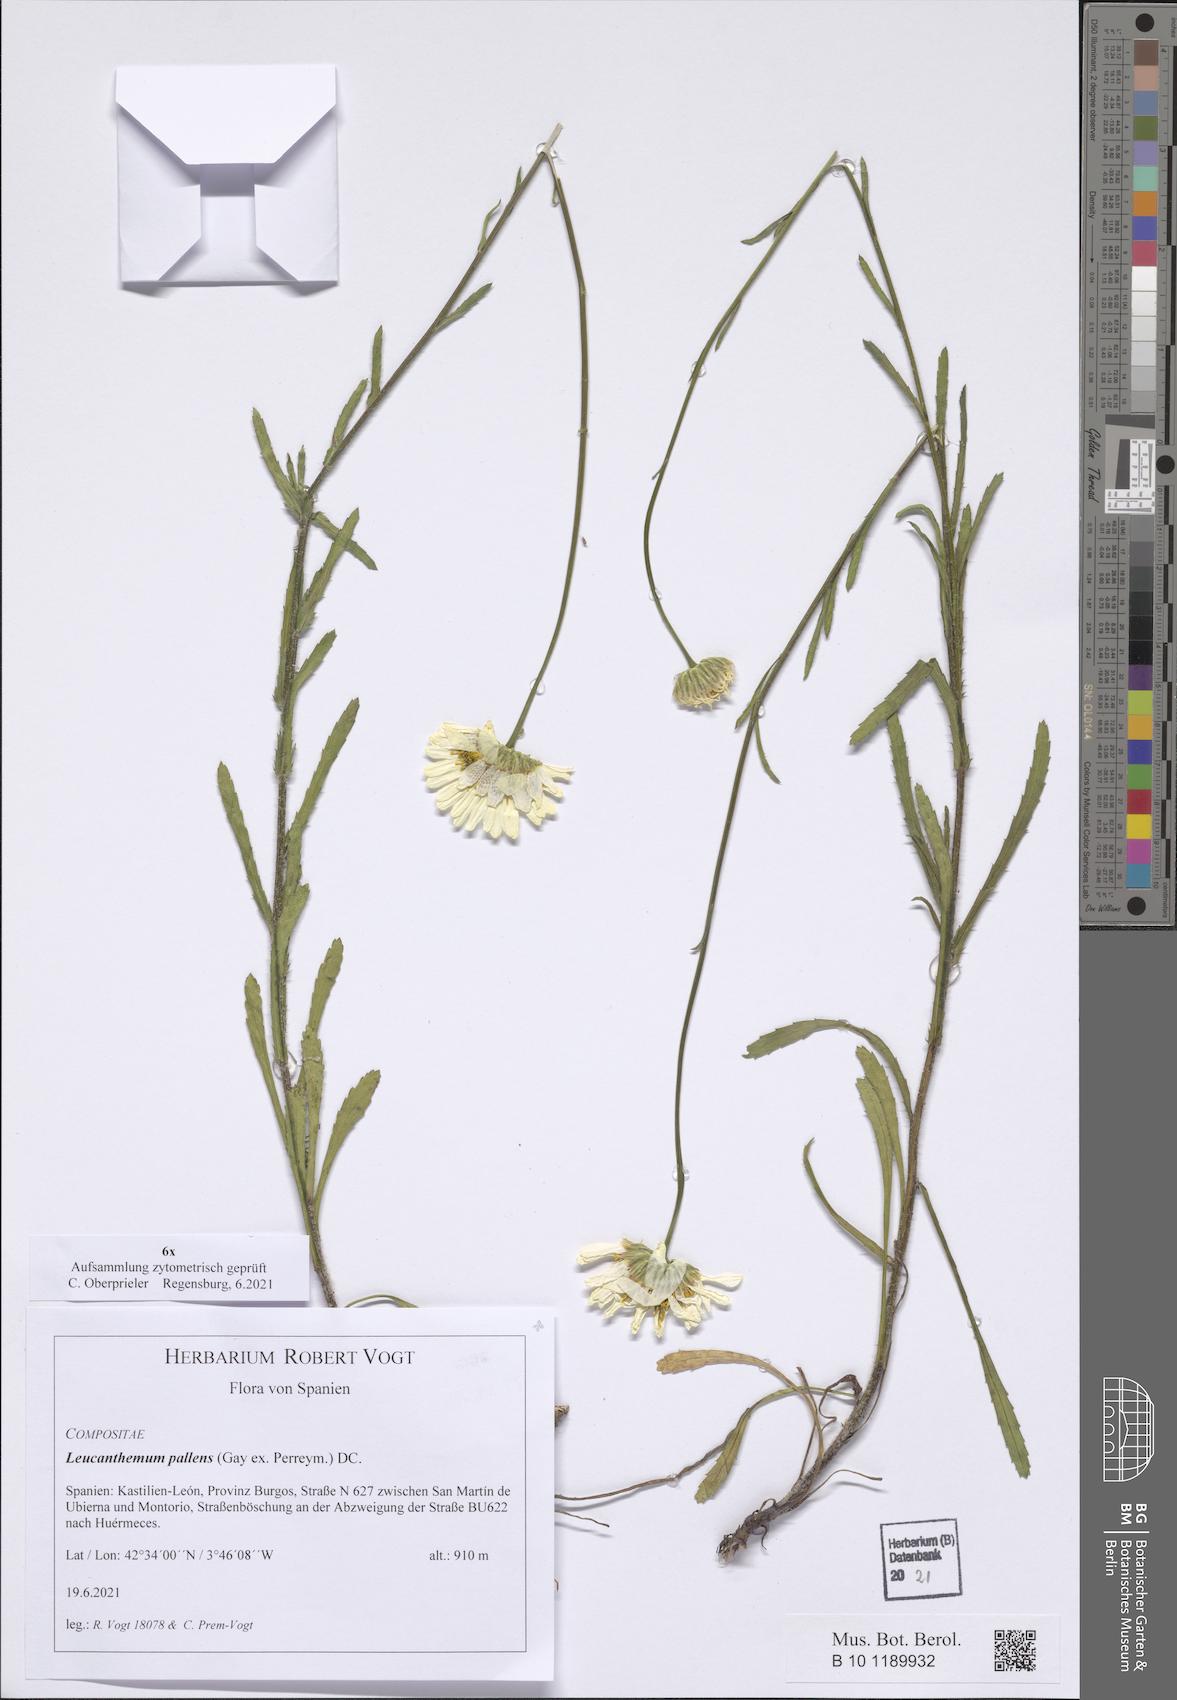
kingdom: Plantae
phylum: Tracheophyta
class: Magnoliopsida
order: Asterales
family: Asteraceae
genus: Leucanthemum
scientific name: Leucanthemum pallens
